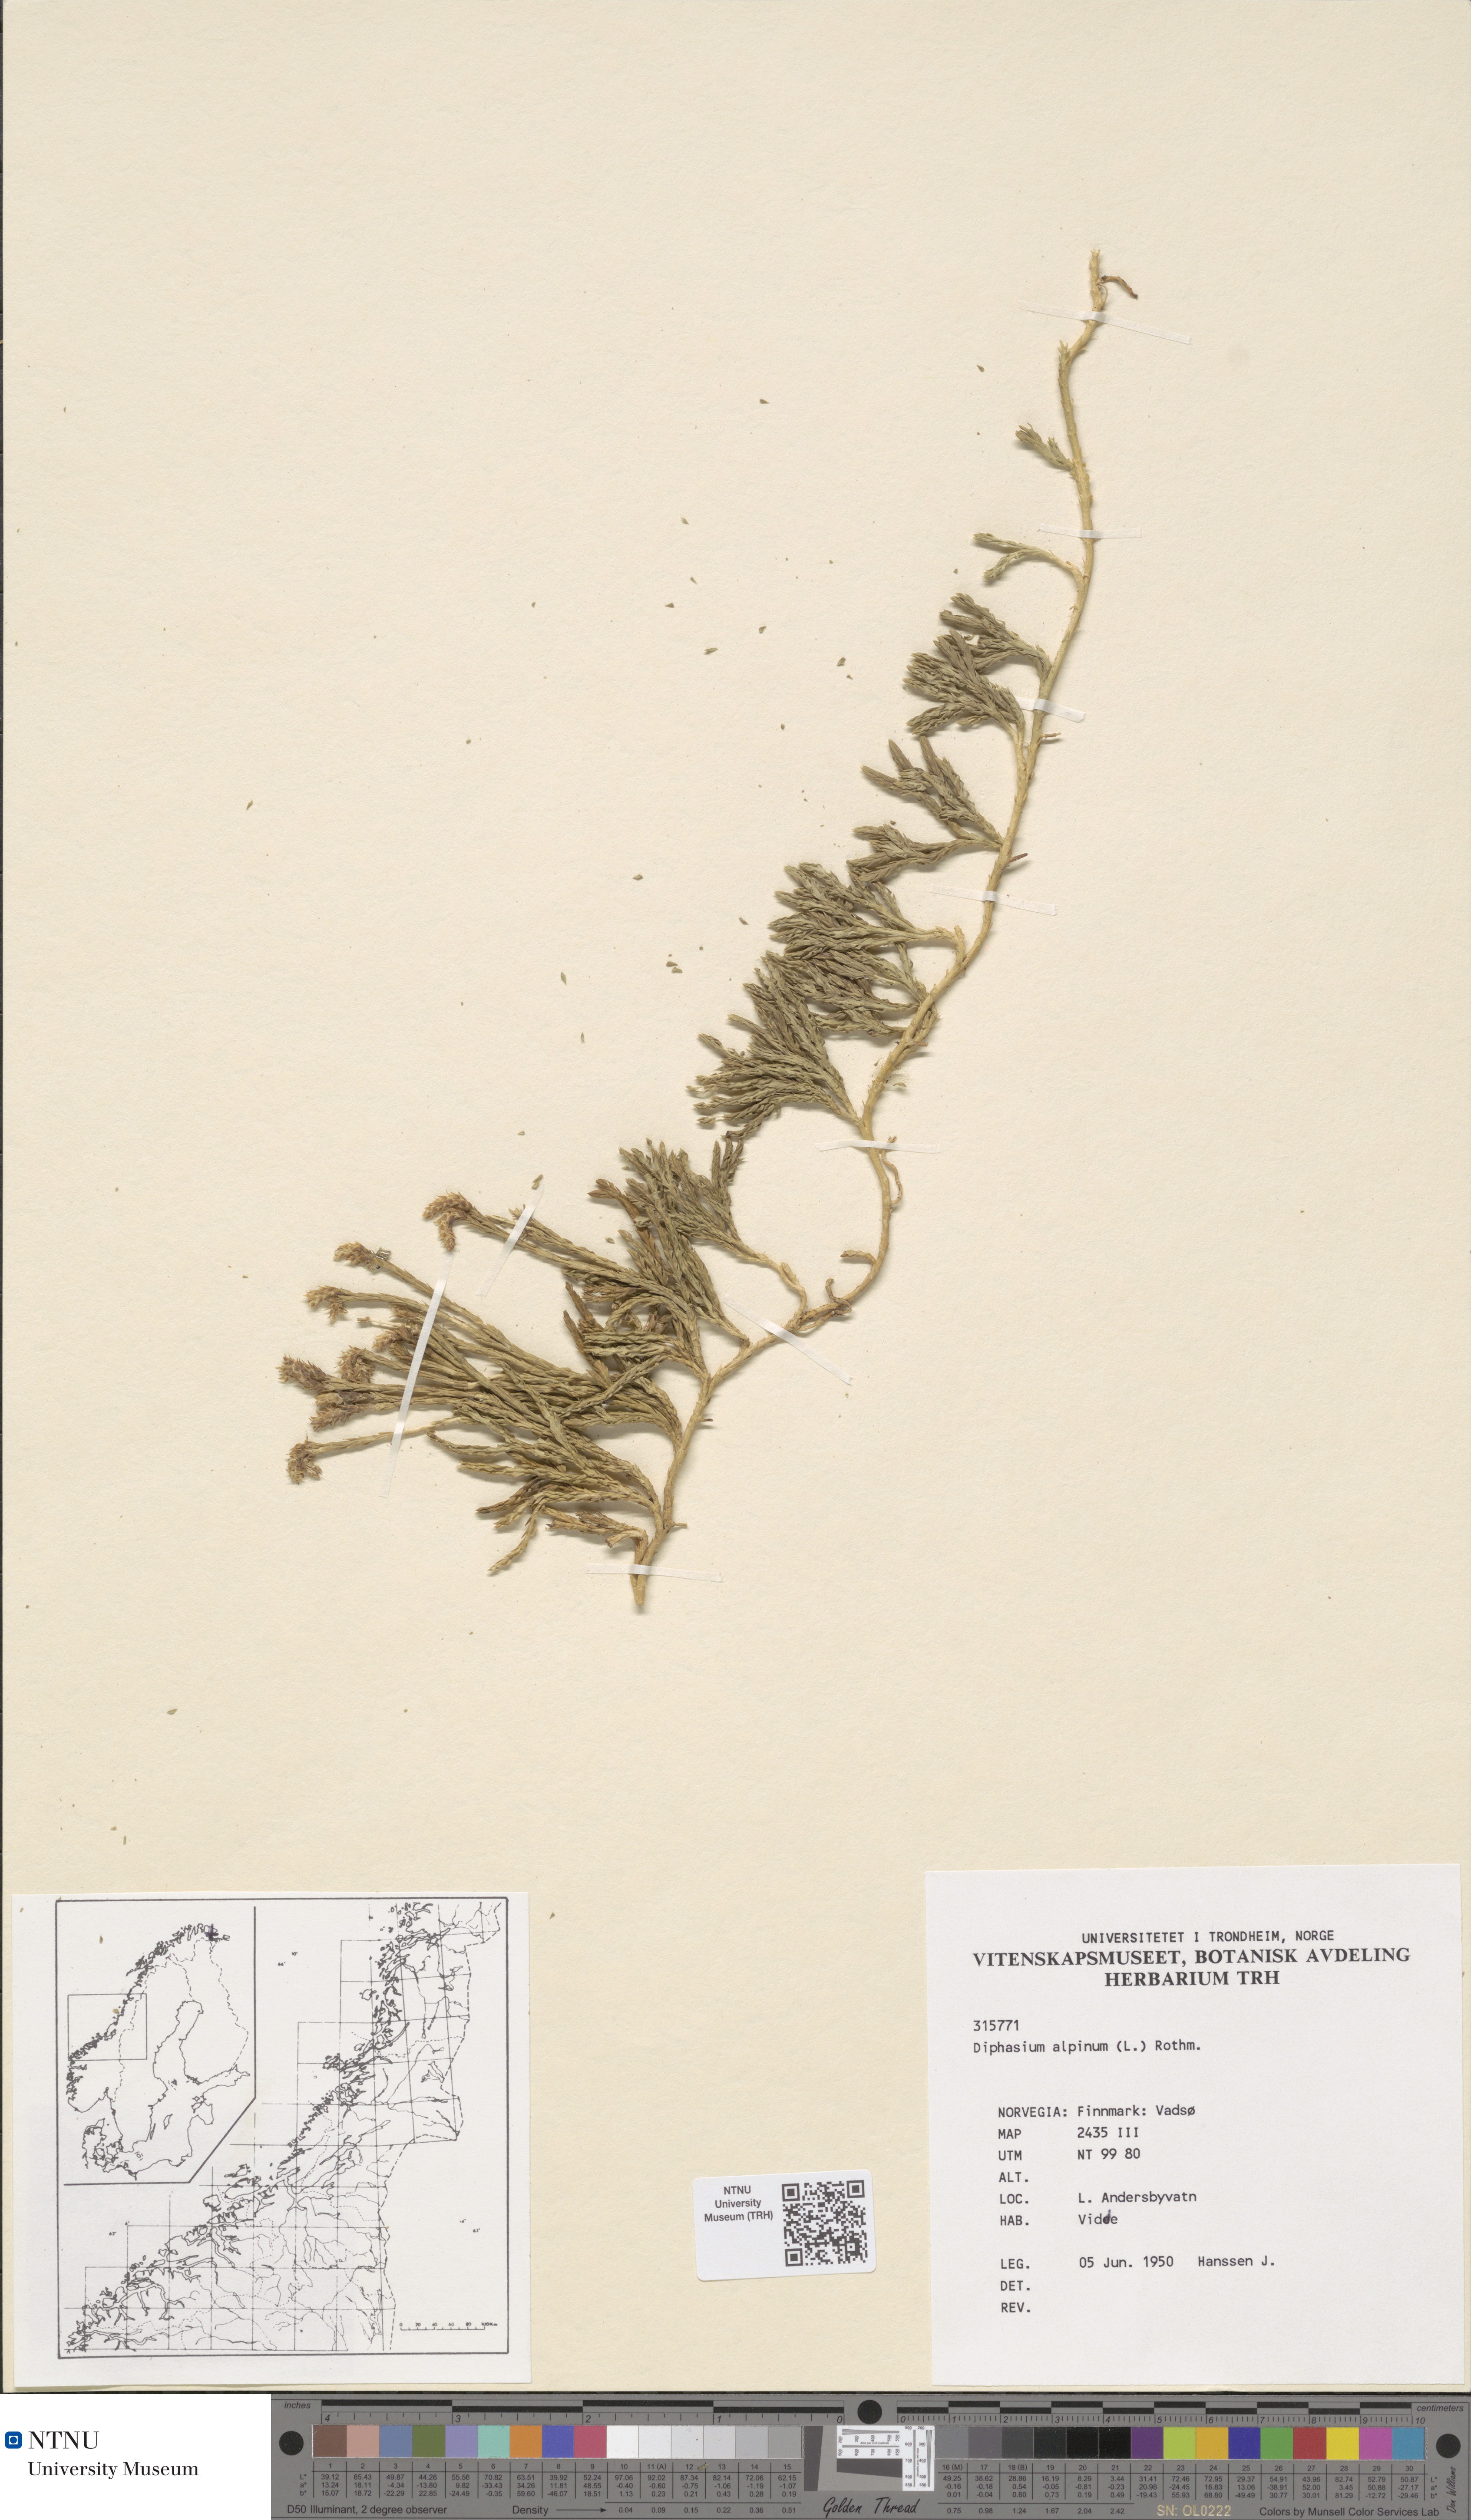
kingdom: Plantae
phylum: Tracheophyta
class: Lycopodiopsida
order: Lycopodiales
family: Lycopodiaceae
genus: Diphasiastrum
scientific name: Diphasiastrum alpinum
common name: Alpine clubmoss
